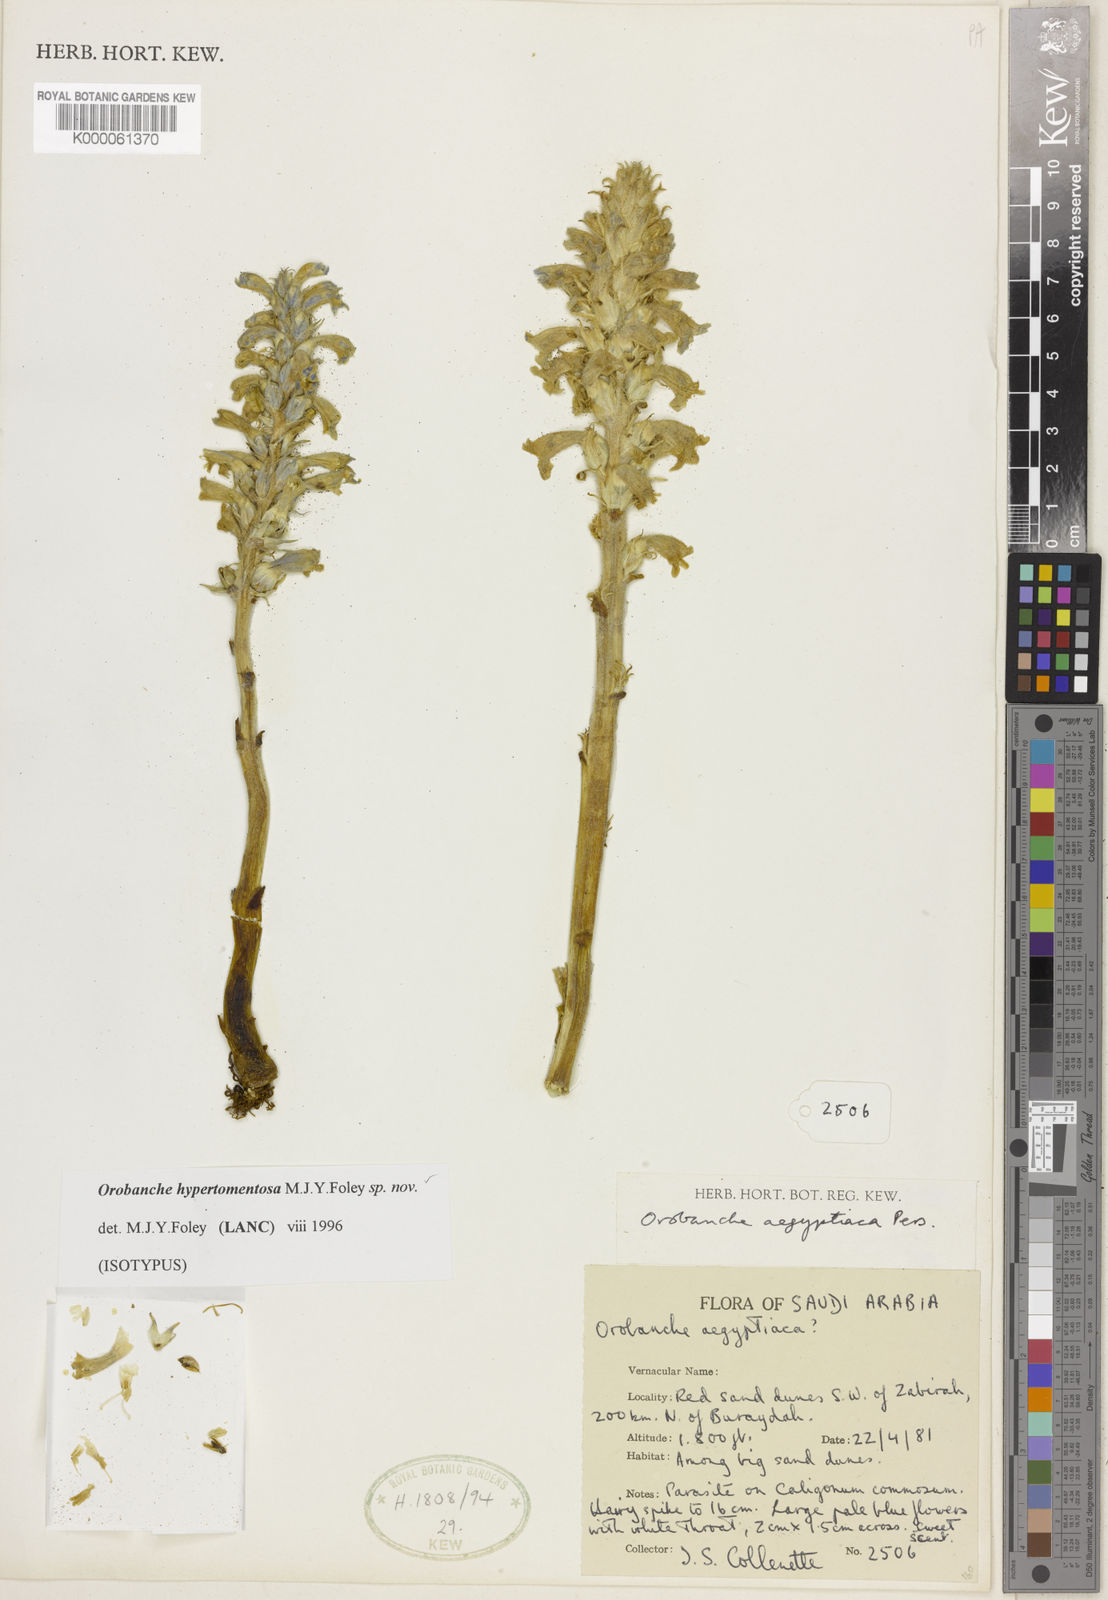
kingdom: Plantae
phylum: Tracheophyta
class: Magnoliopsida
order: Lamiales
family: Orobanchaceae
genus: Phelipanche
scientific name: Phelipanche hypertomentosa
